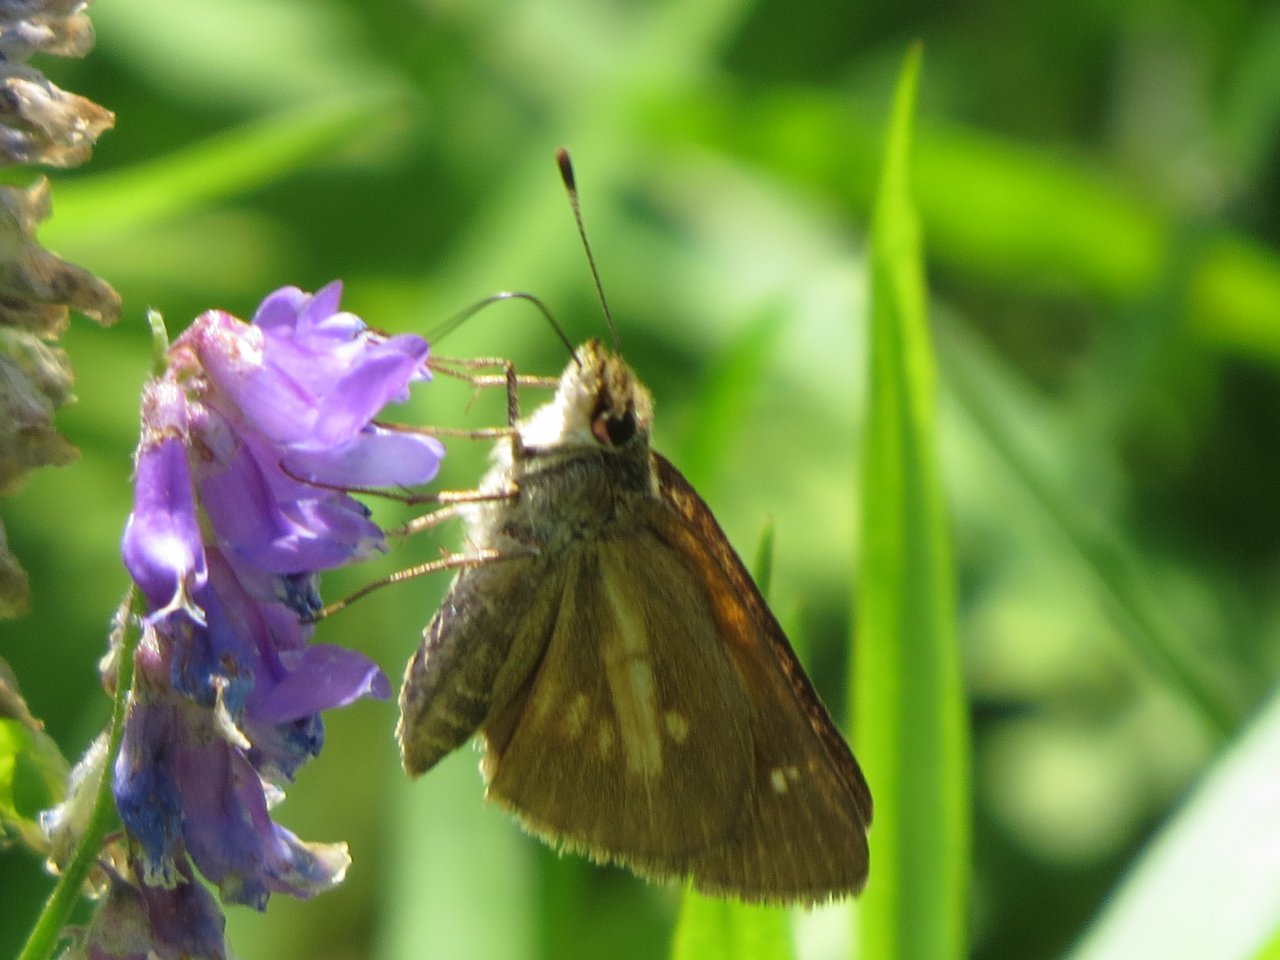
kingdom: Animalia
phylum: Arthropoda
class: Insecta
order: Lepidoptera
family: Hesperiidae
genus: Poanes
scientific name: Poanes viator
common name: Broad-winged Skipper
